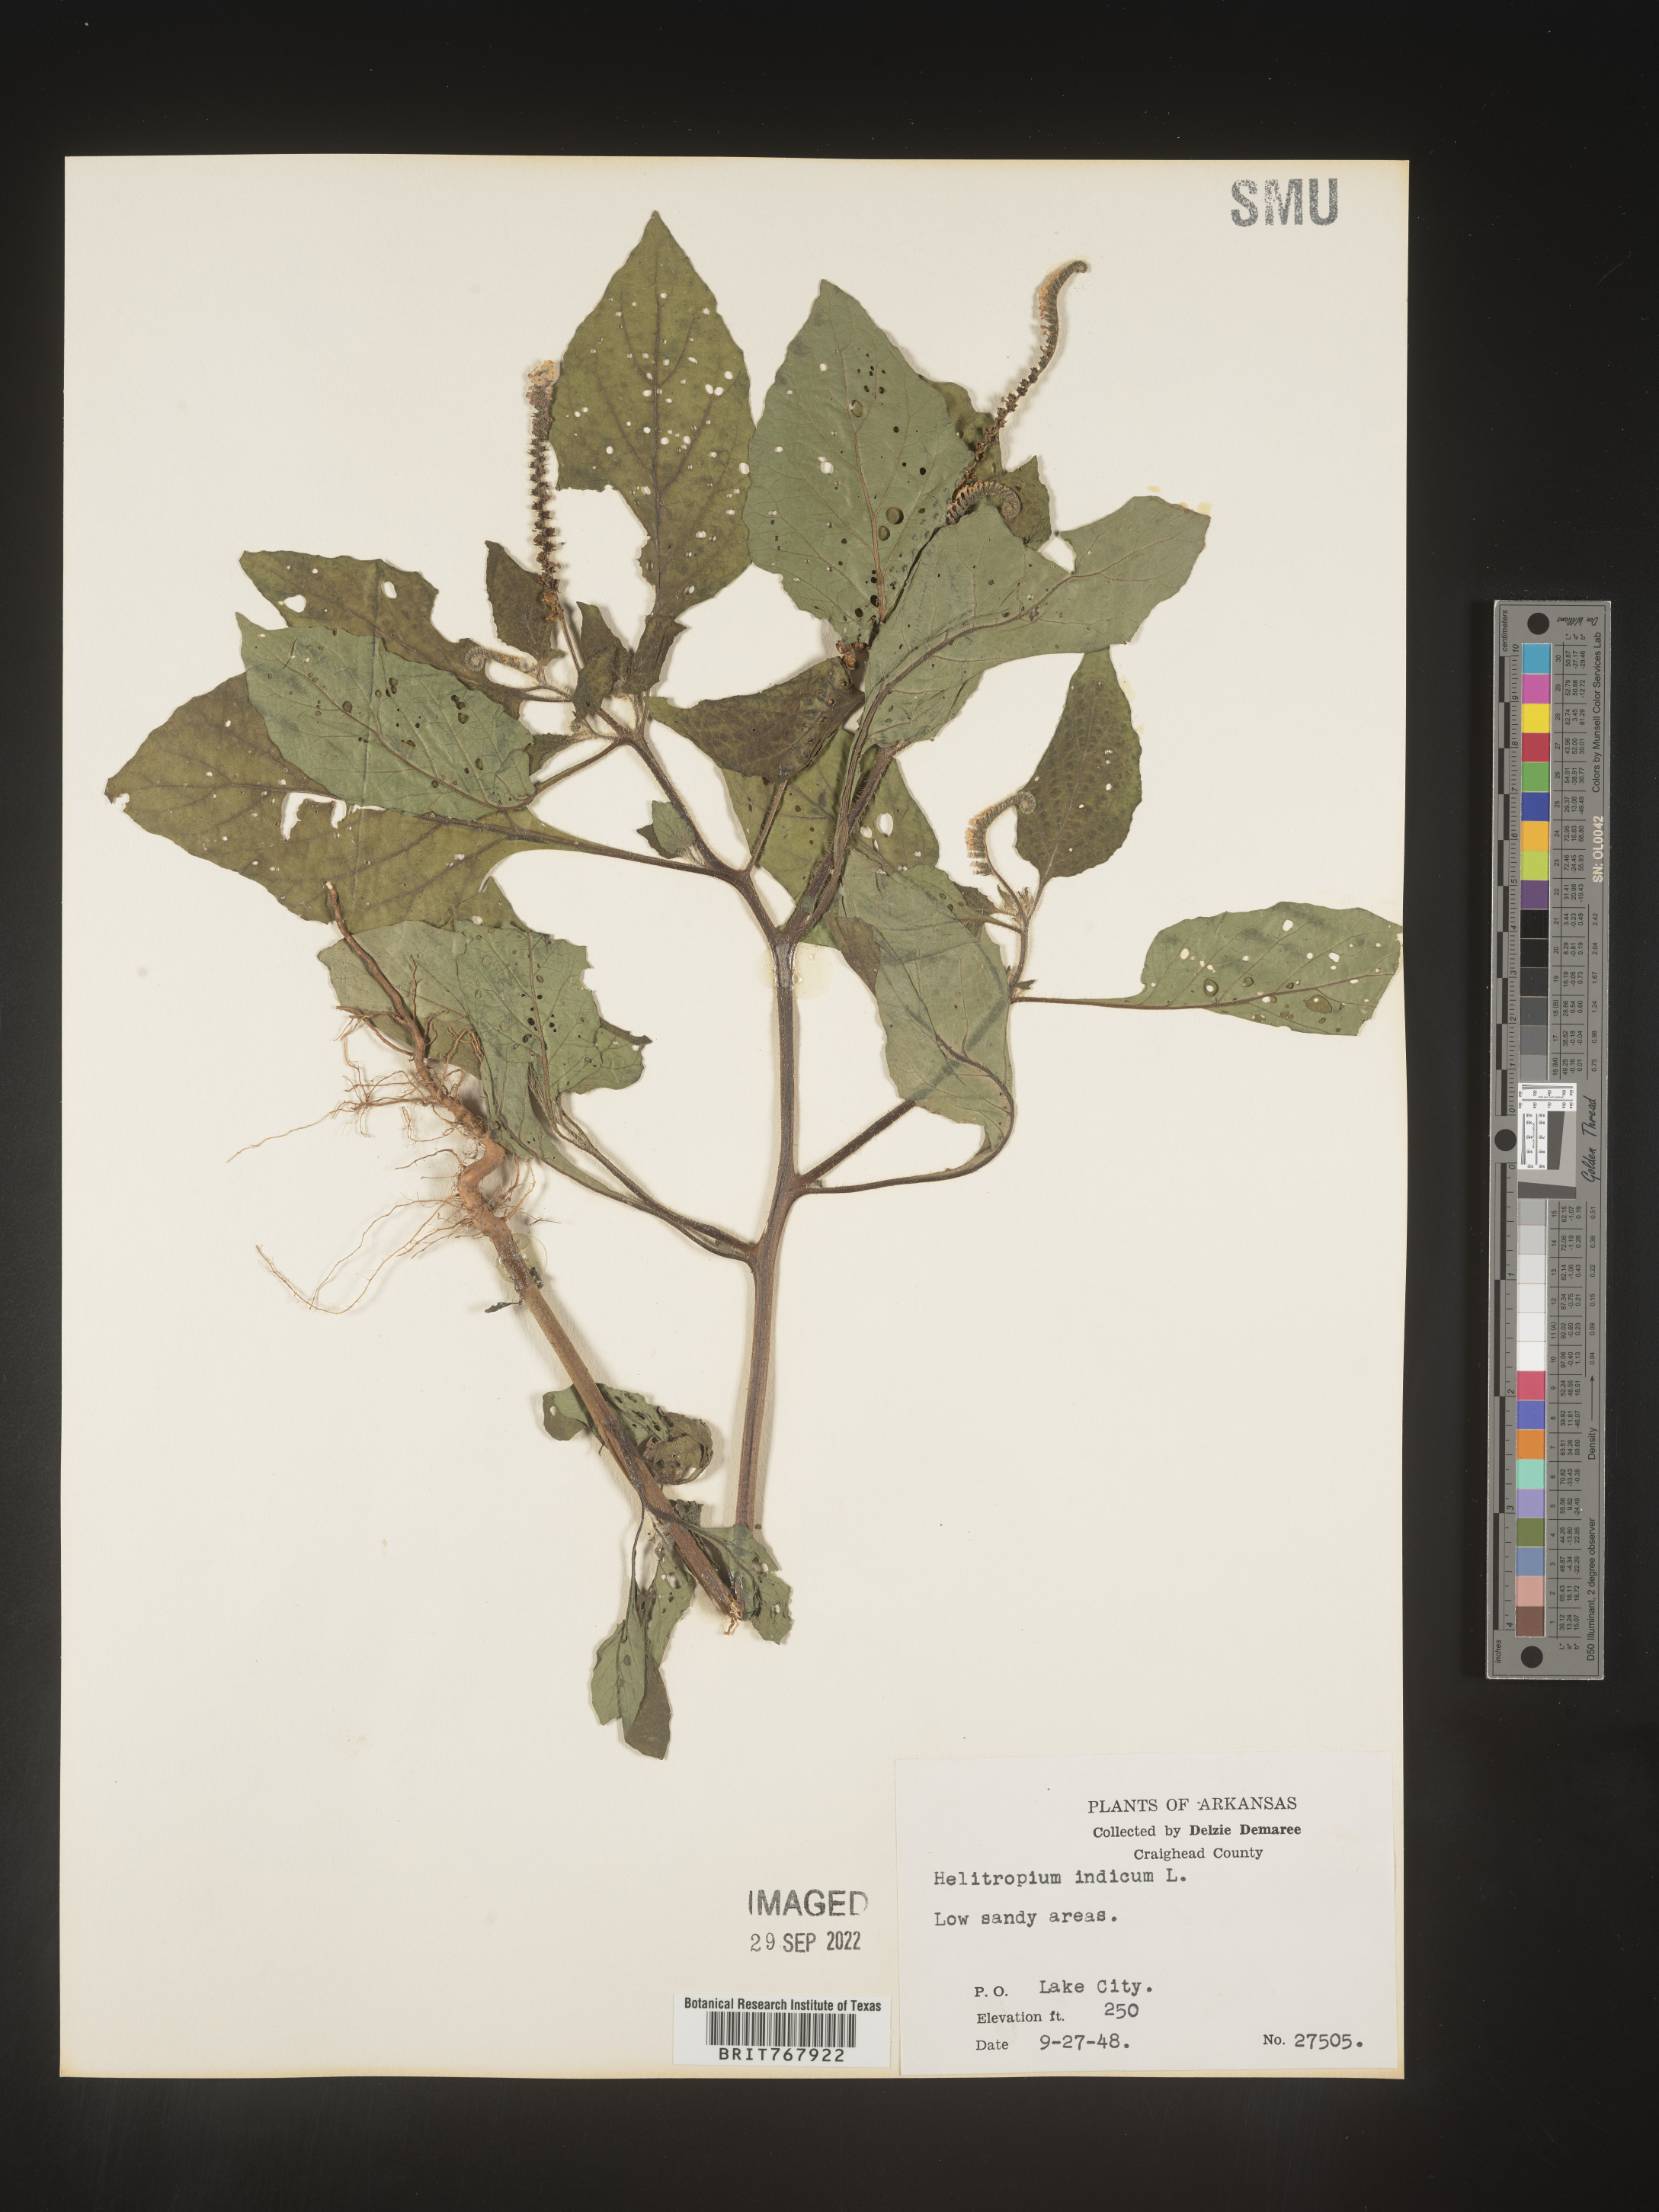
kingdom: Plantae
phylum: Tracheophyta
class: Magnoliopsida
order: Boraginales
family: Heliotropiaceae
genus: Heliotropium
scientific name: Heliotropium indicum
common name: Indian heliotrope
